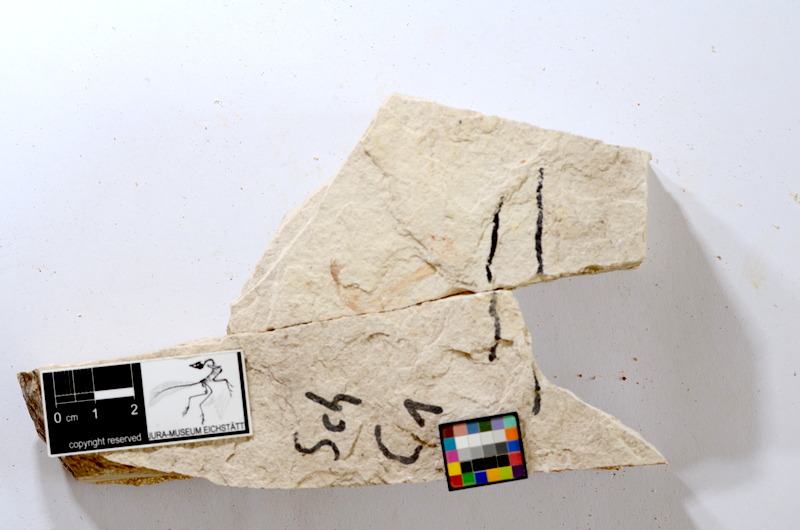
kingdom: Animalia
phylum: Chordata
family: Ascalaboidae
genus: Tharsis
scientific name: Tharsis dubius
